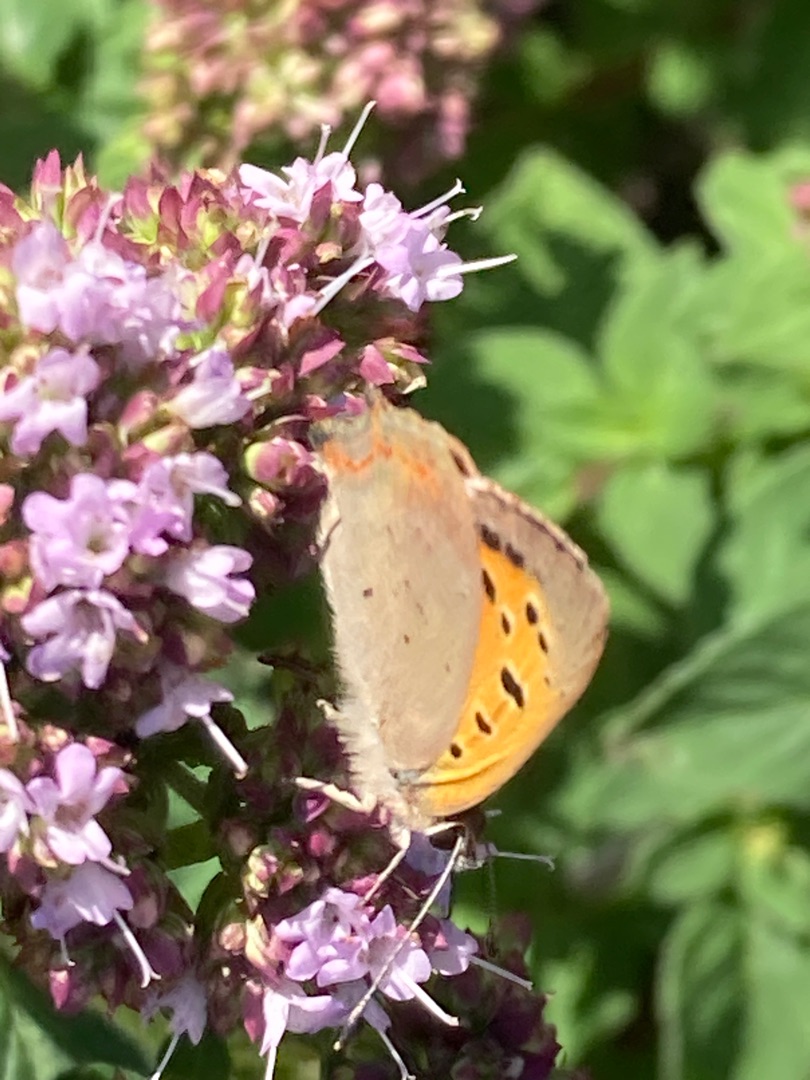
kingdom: Animalia
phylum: Arthropoda
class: Insecta
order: Lepidoptera
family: Lycaenidae
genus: Lycaena
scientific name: Lycaena phlaeas
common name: Lille ildfugl
